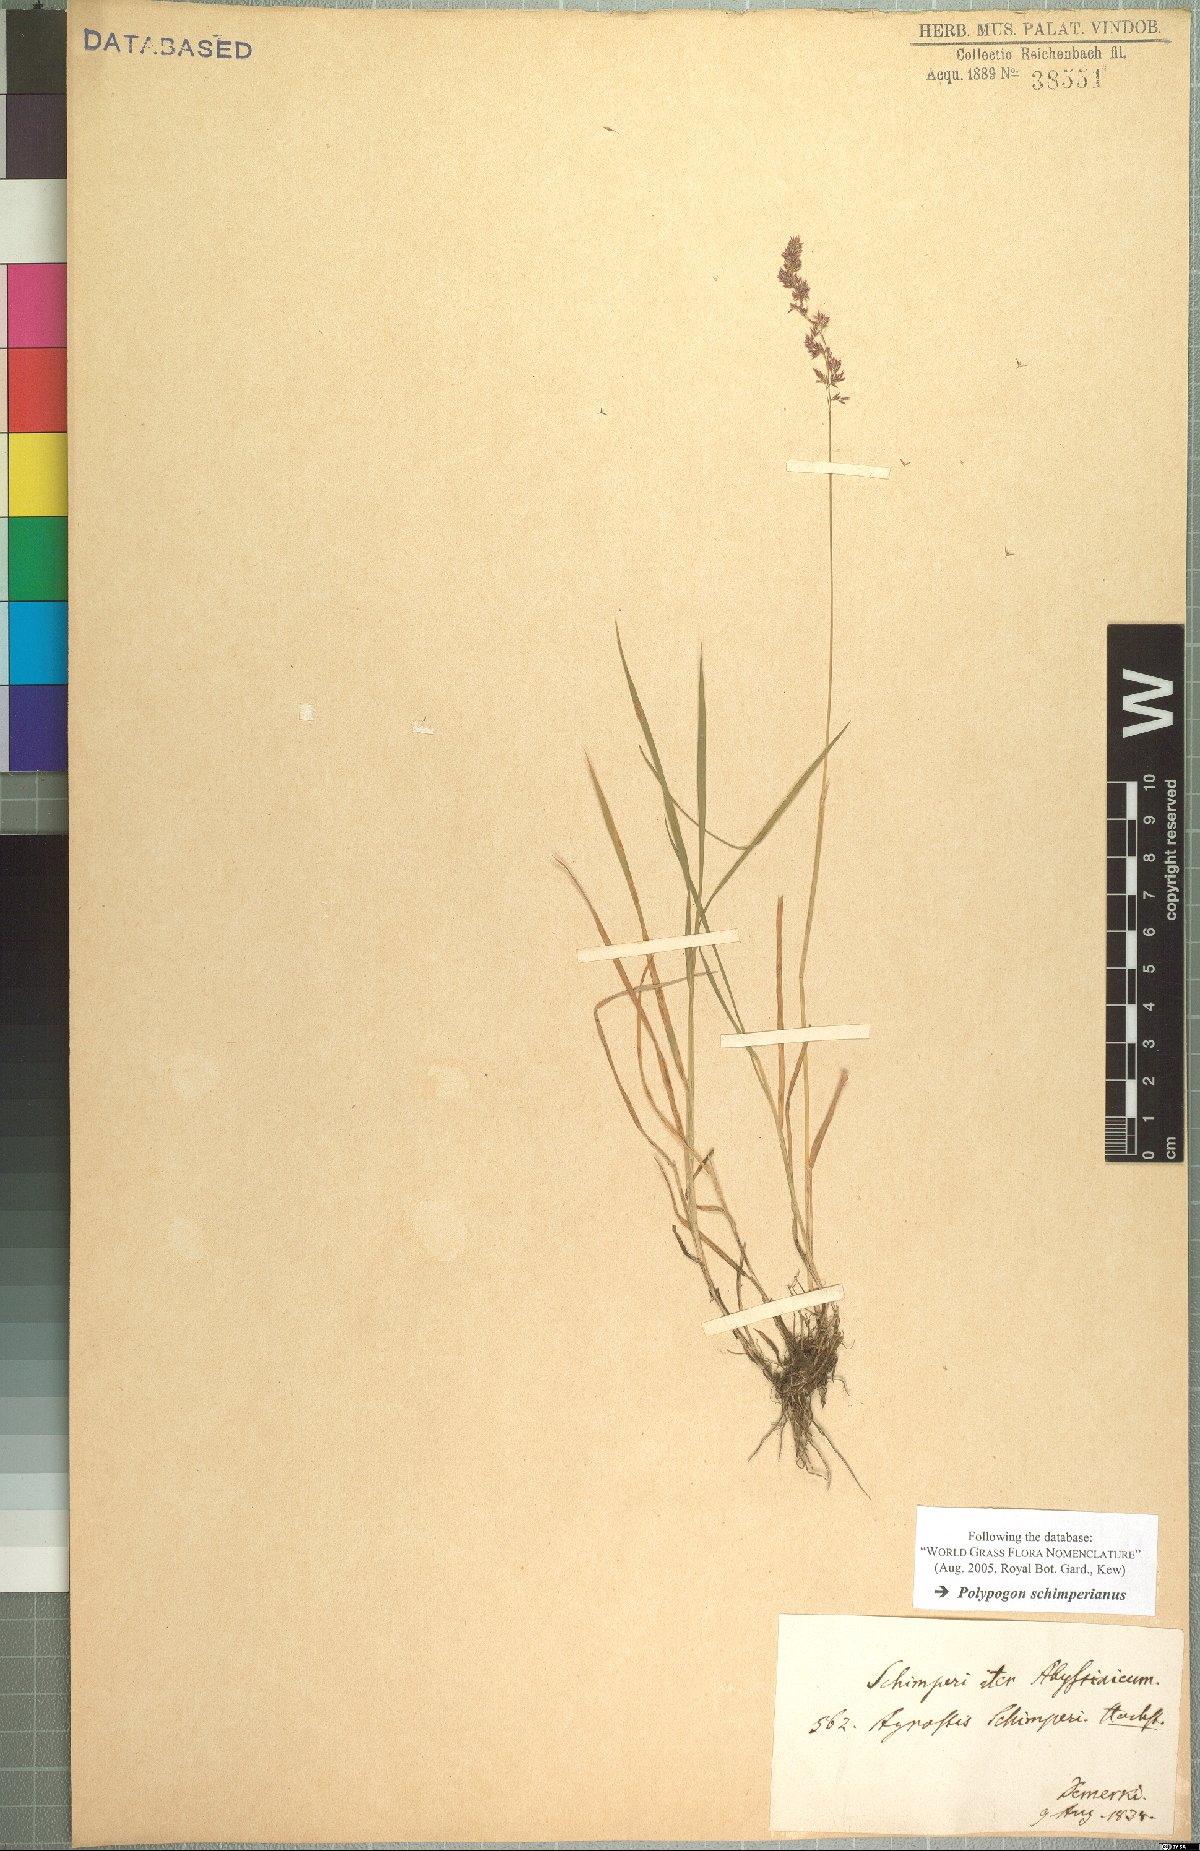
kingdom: Plantae
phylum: Tracheophyta
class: Liliopsida
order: Poales
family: Poaceae
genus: Polypogon
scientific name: Polypogon schimperianus
